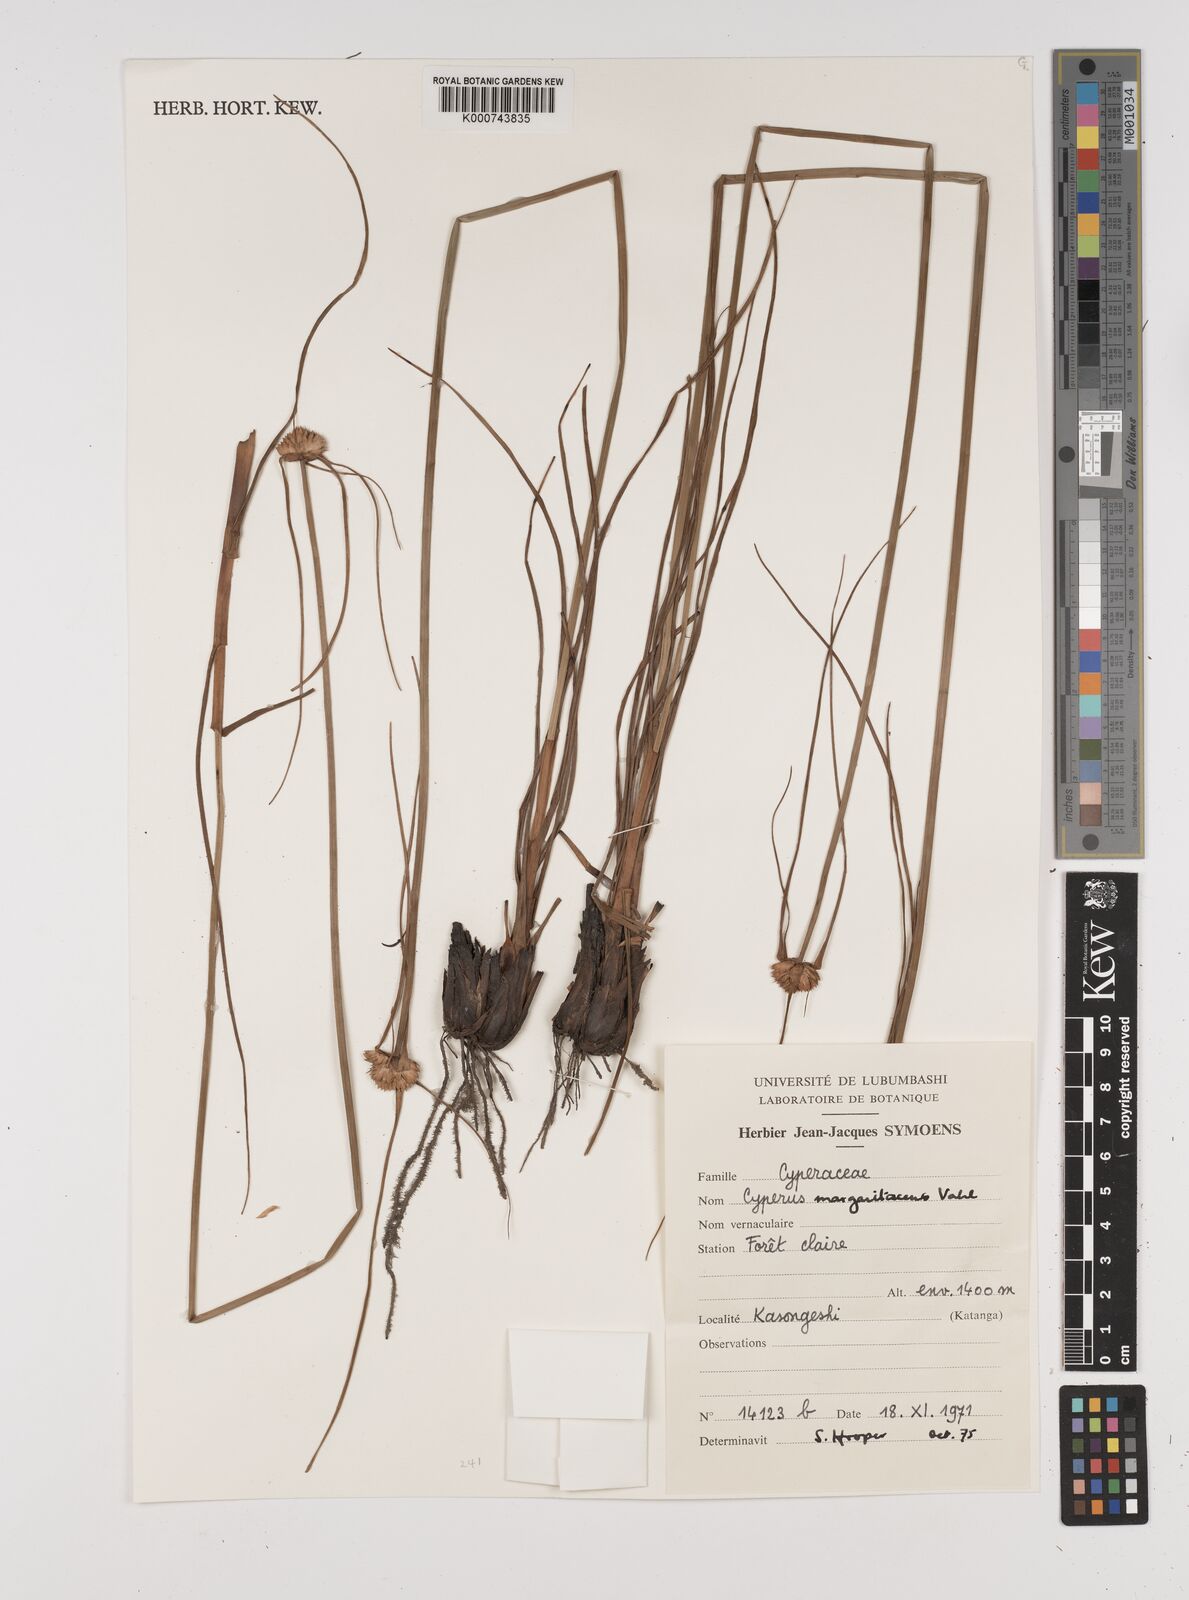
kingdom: Plantae
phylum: Tracheophyta
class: Liliopsida
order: Poales
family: Cyperaceae
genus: Cyperus
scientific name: Cyperus margaritaceus
